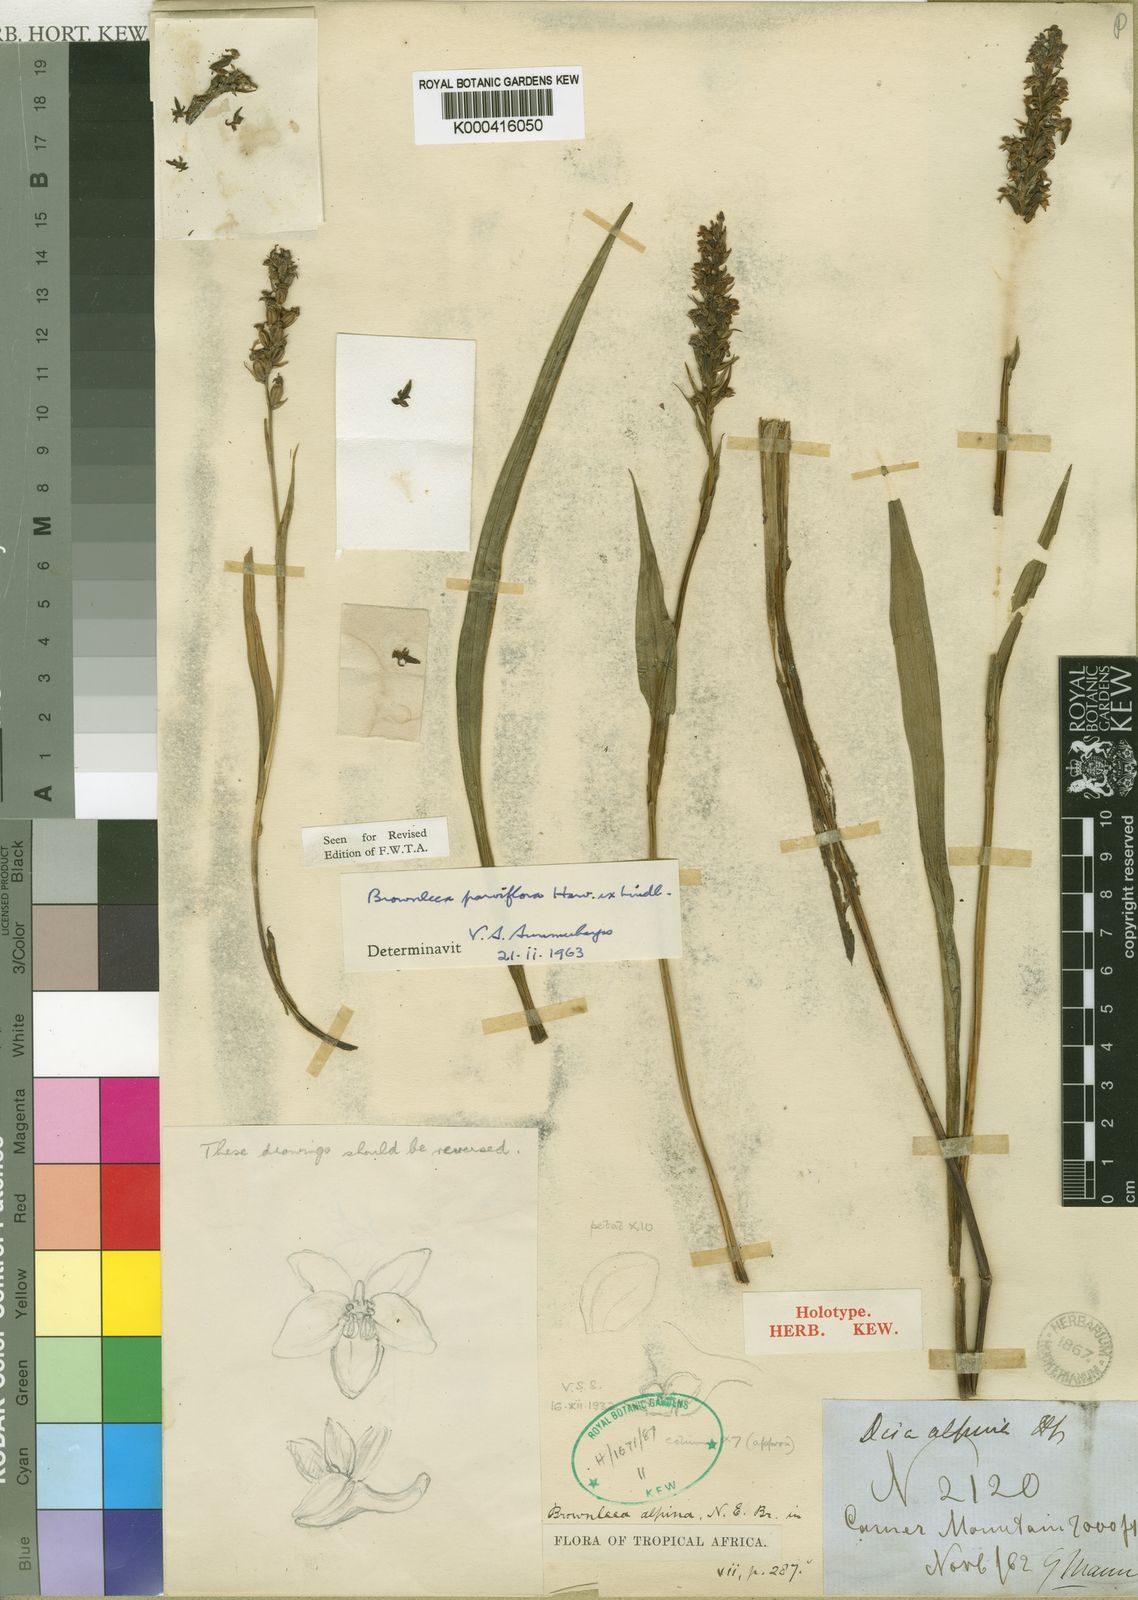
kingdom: Plantae
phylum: Tracheophyta
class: Liliopsida
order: Asparagales
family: Orchidaceae
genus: Brownleea
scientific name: Brownleea parviflora
